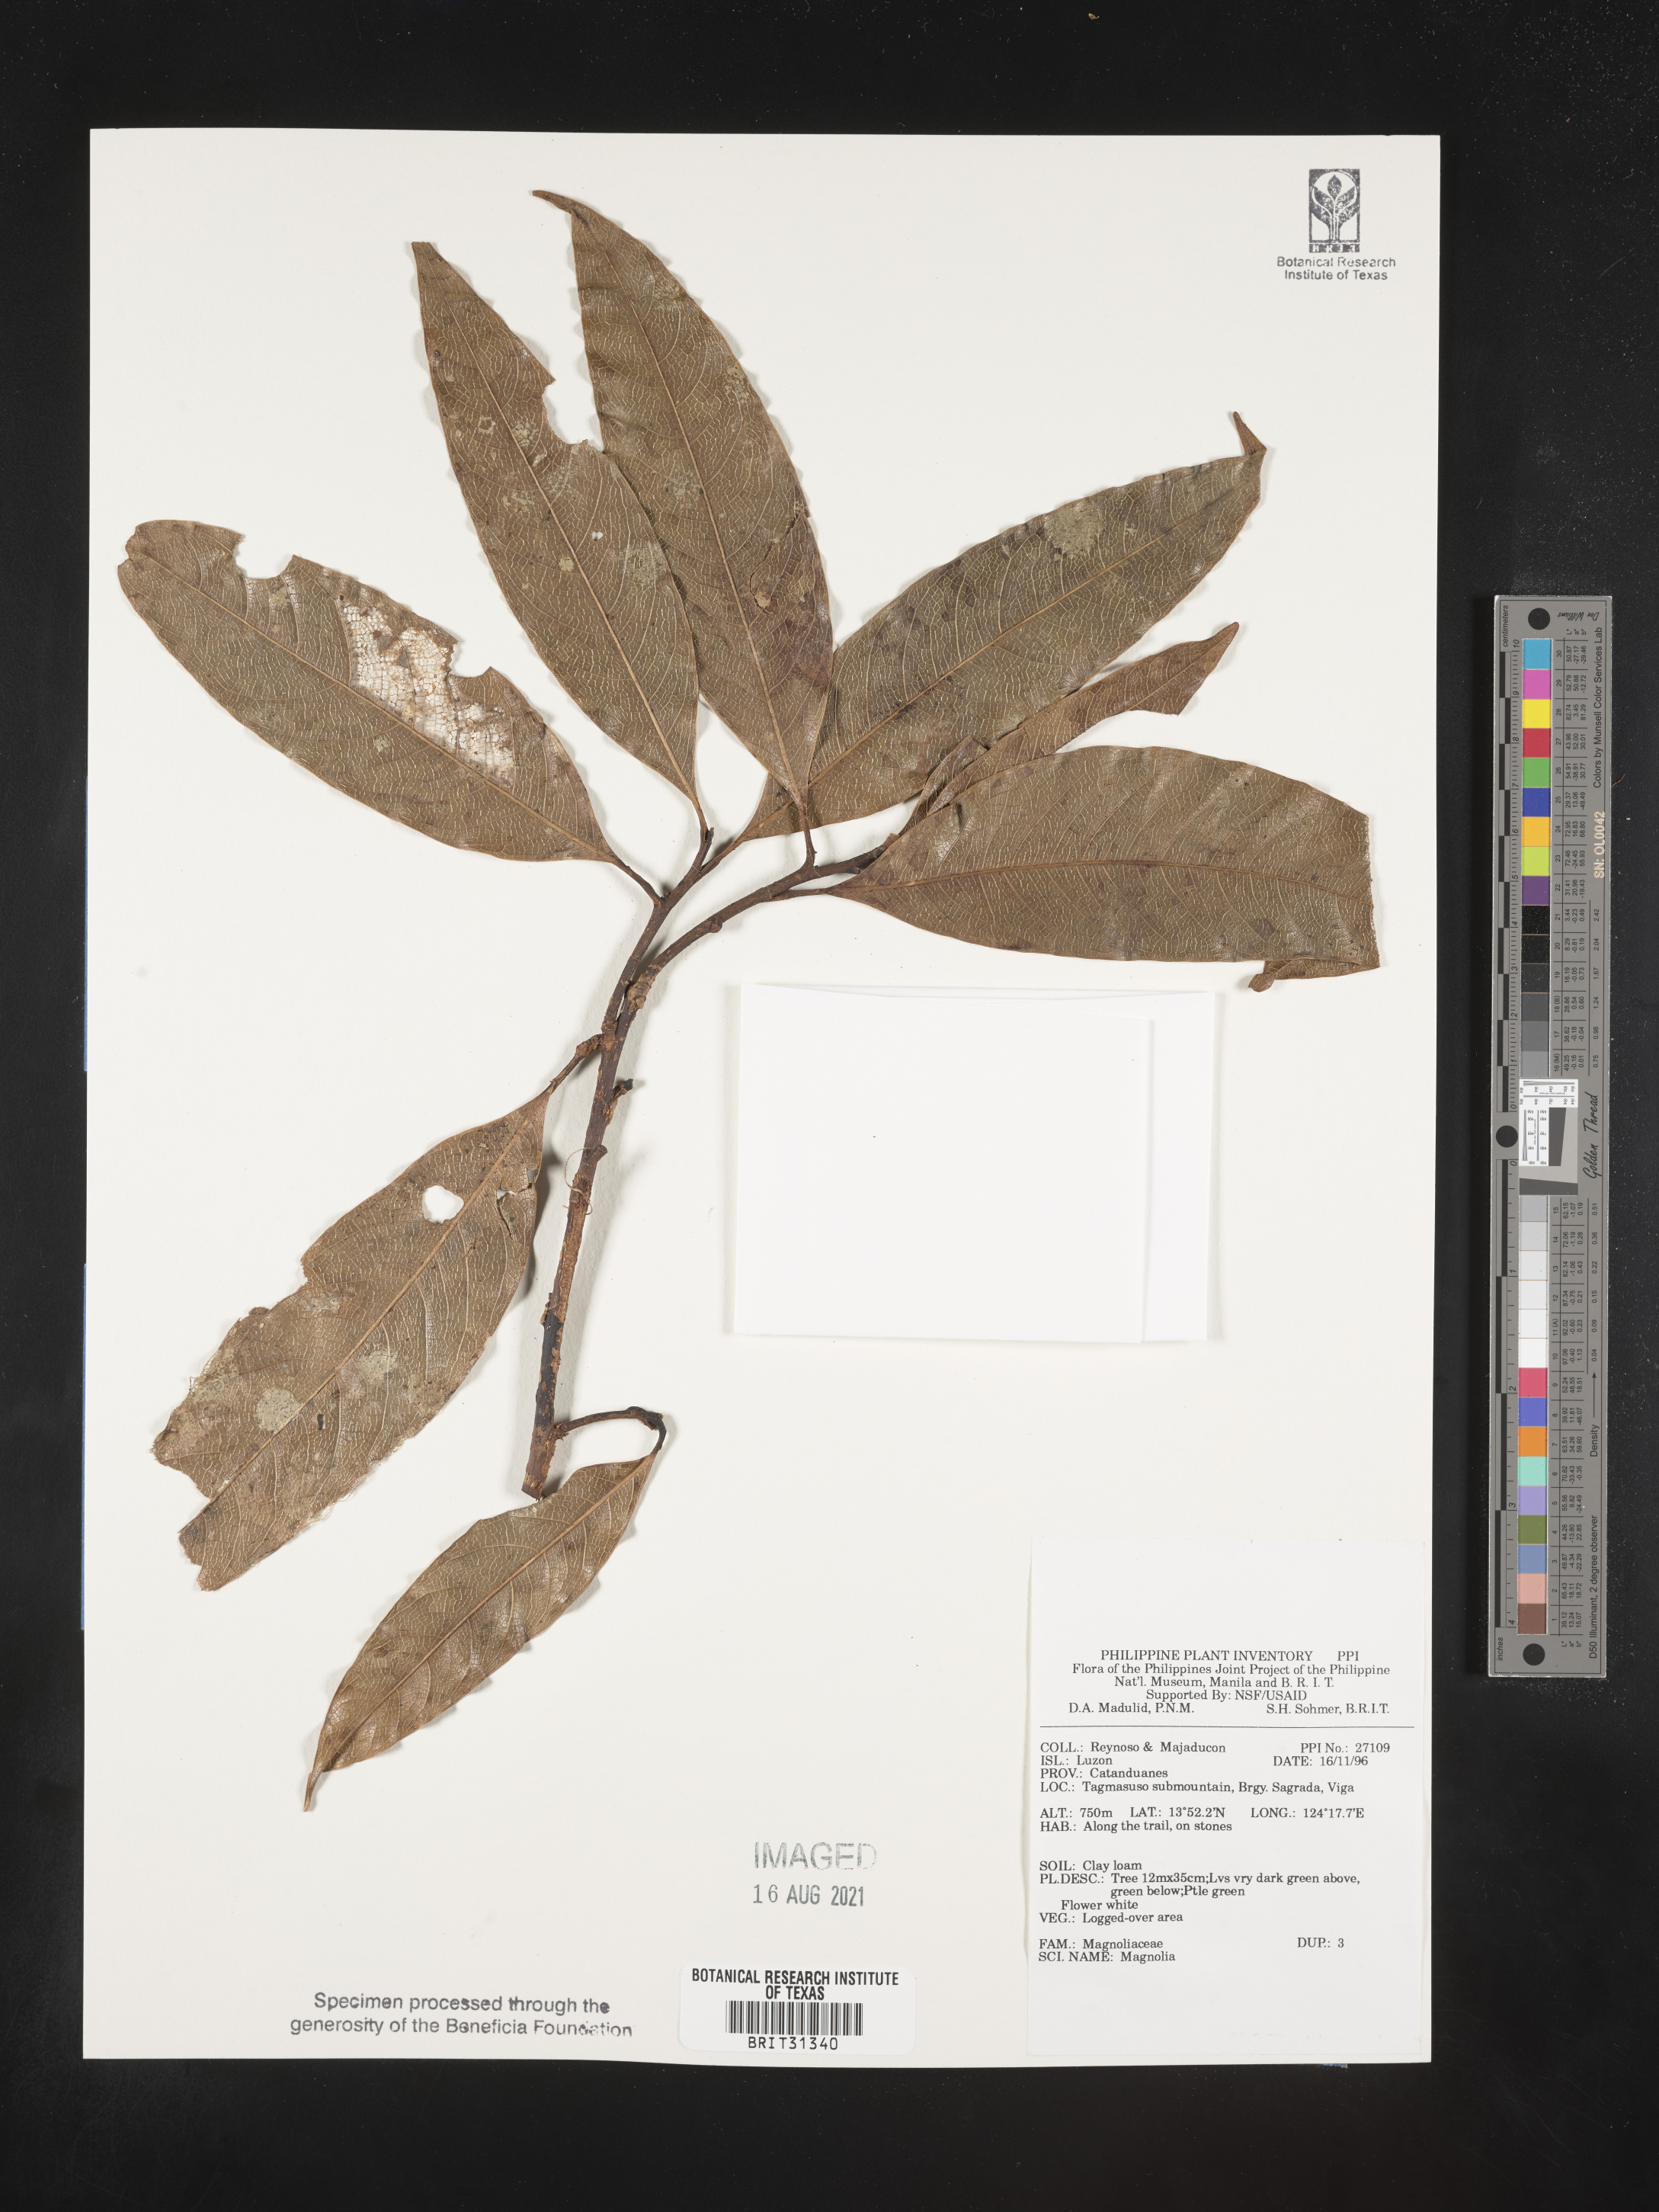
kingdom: Plantae
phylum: Tracheophyta
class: Magnoliopsida
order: Magnoliales
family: Magnoliaceae
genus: Magnolia
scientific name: Magnolia
